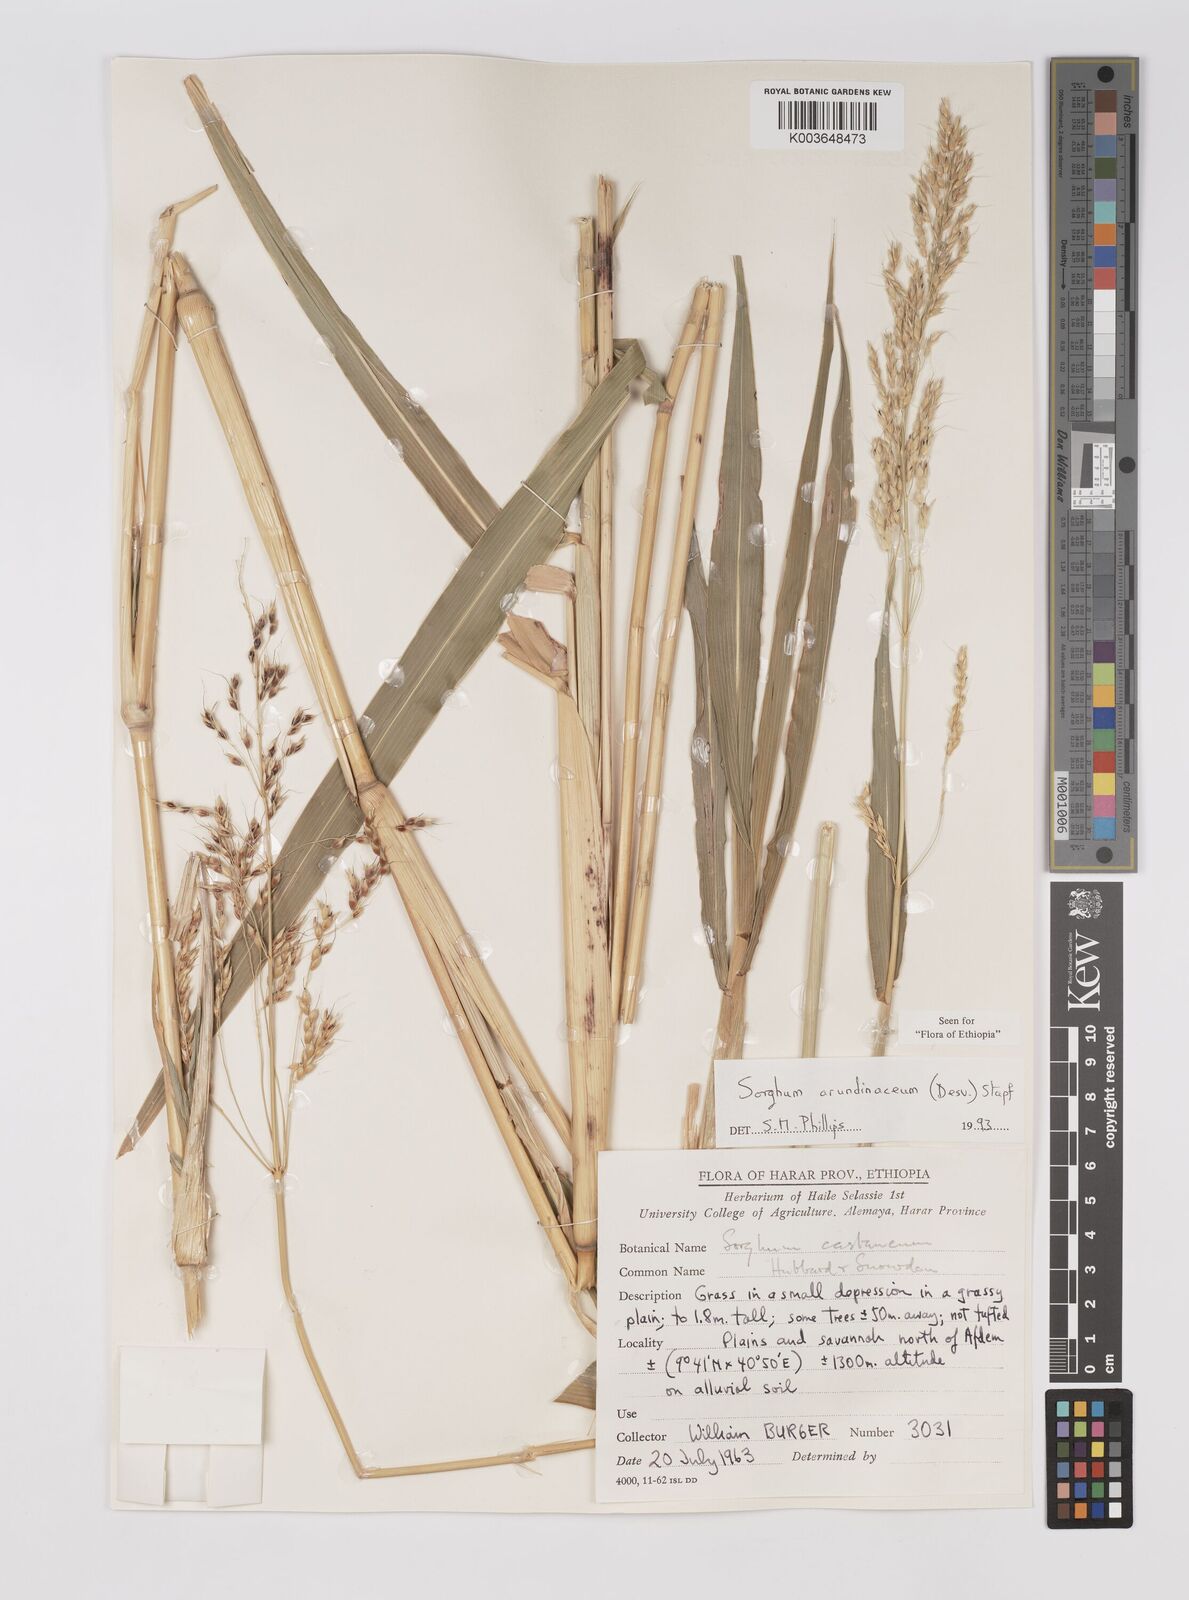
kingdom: Plantae
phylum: Tracheophyta
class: Liliopsida
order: Poales
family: Poaceae
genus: Sorghum
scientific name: Sorghum arundinaceum
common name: Sorghum
